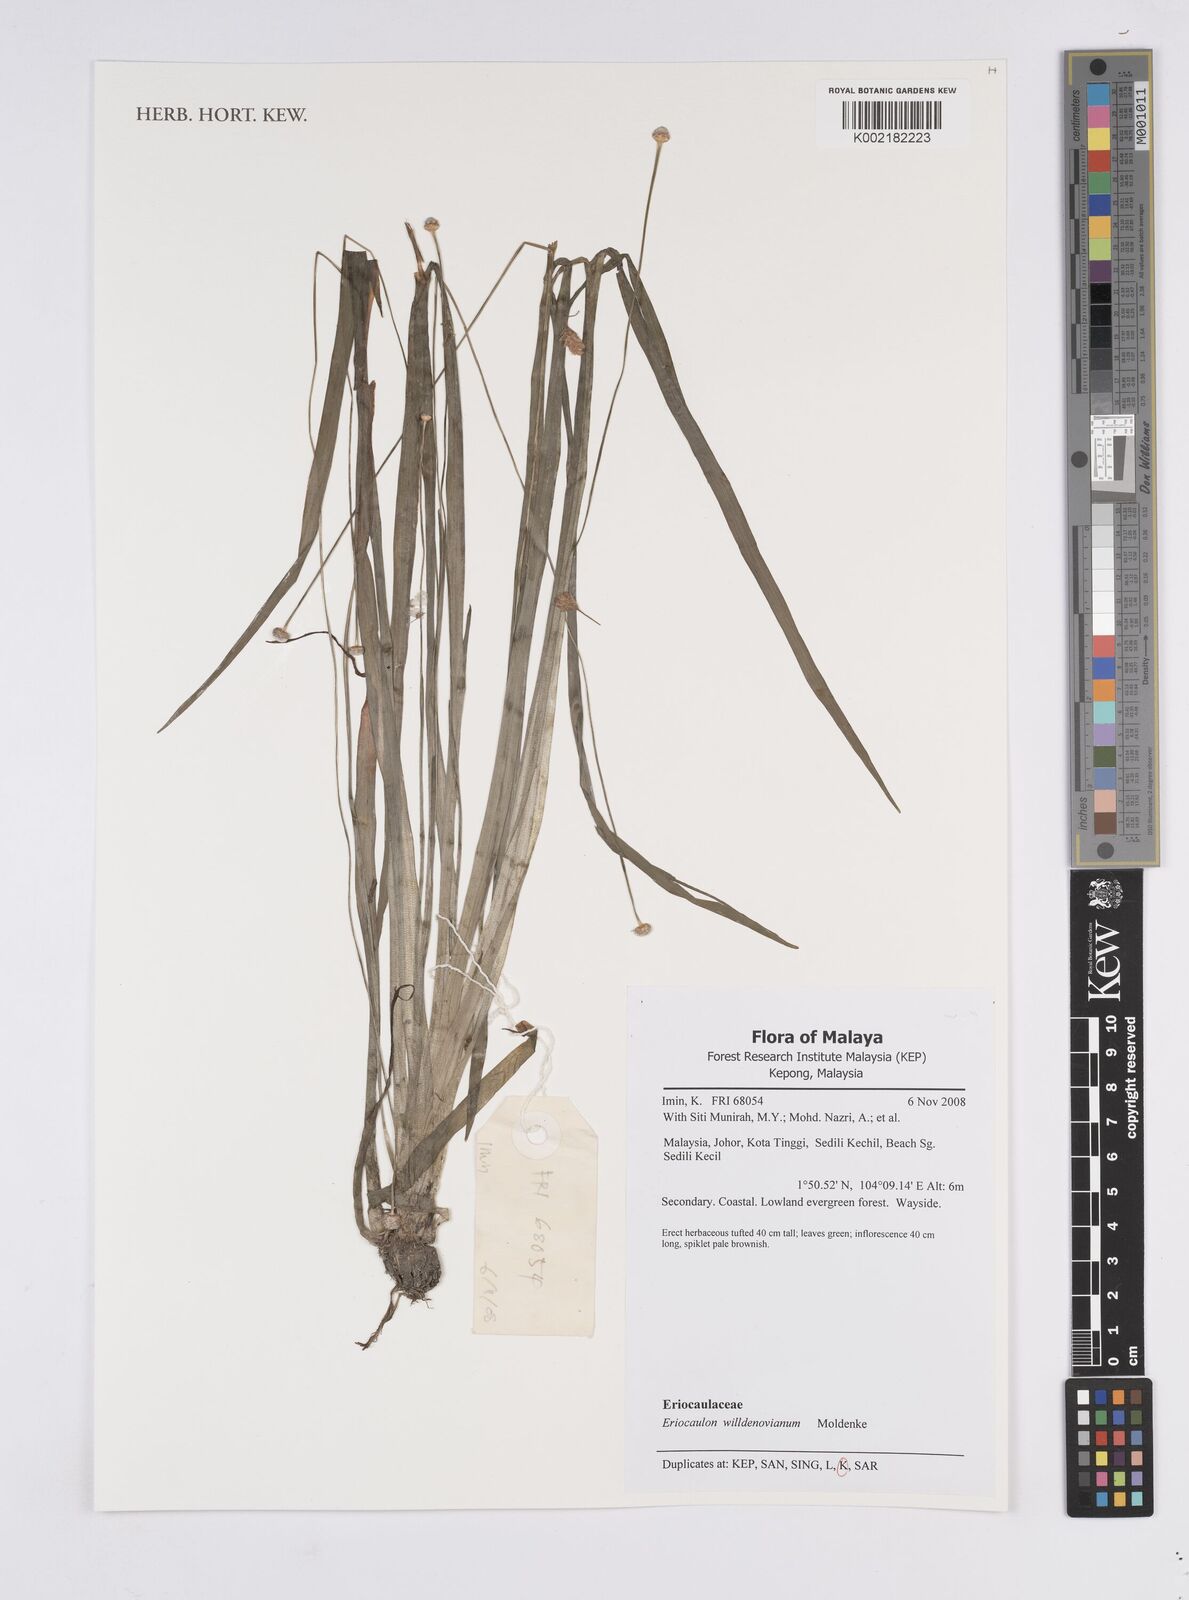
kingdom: Plantae
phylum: Tracheophyta
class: Liliopsida
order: Poales
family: Eriocaulaceae
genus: Eriocaulon
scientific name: Eriocaulon willdenovianum
